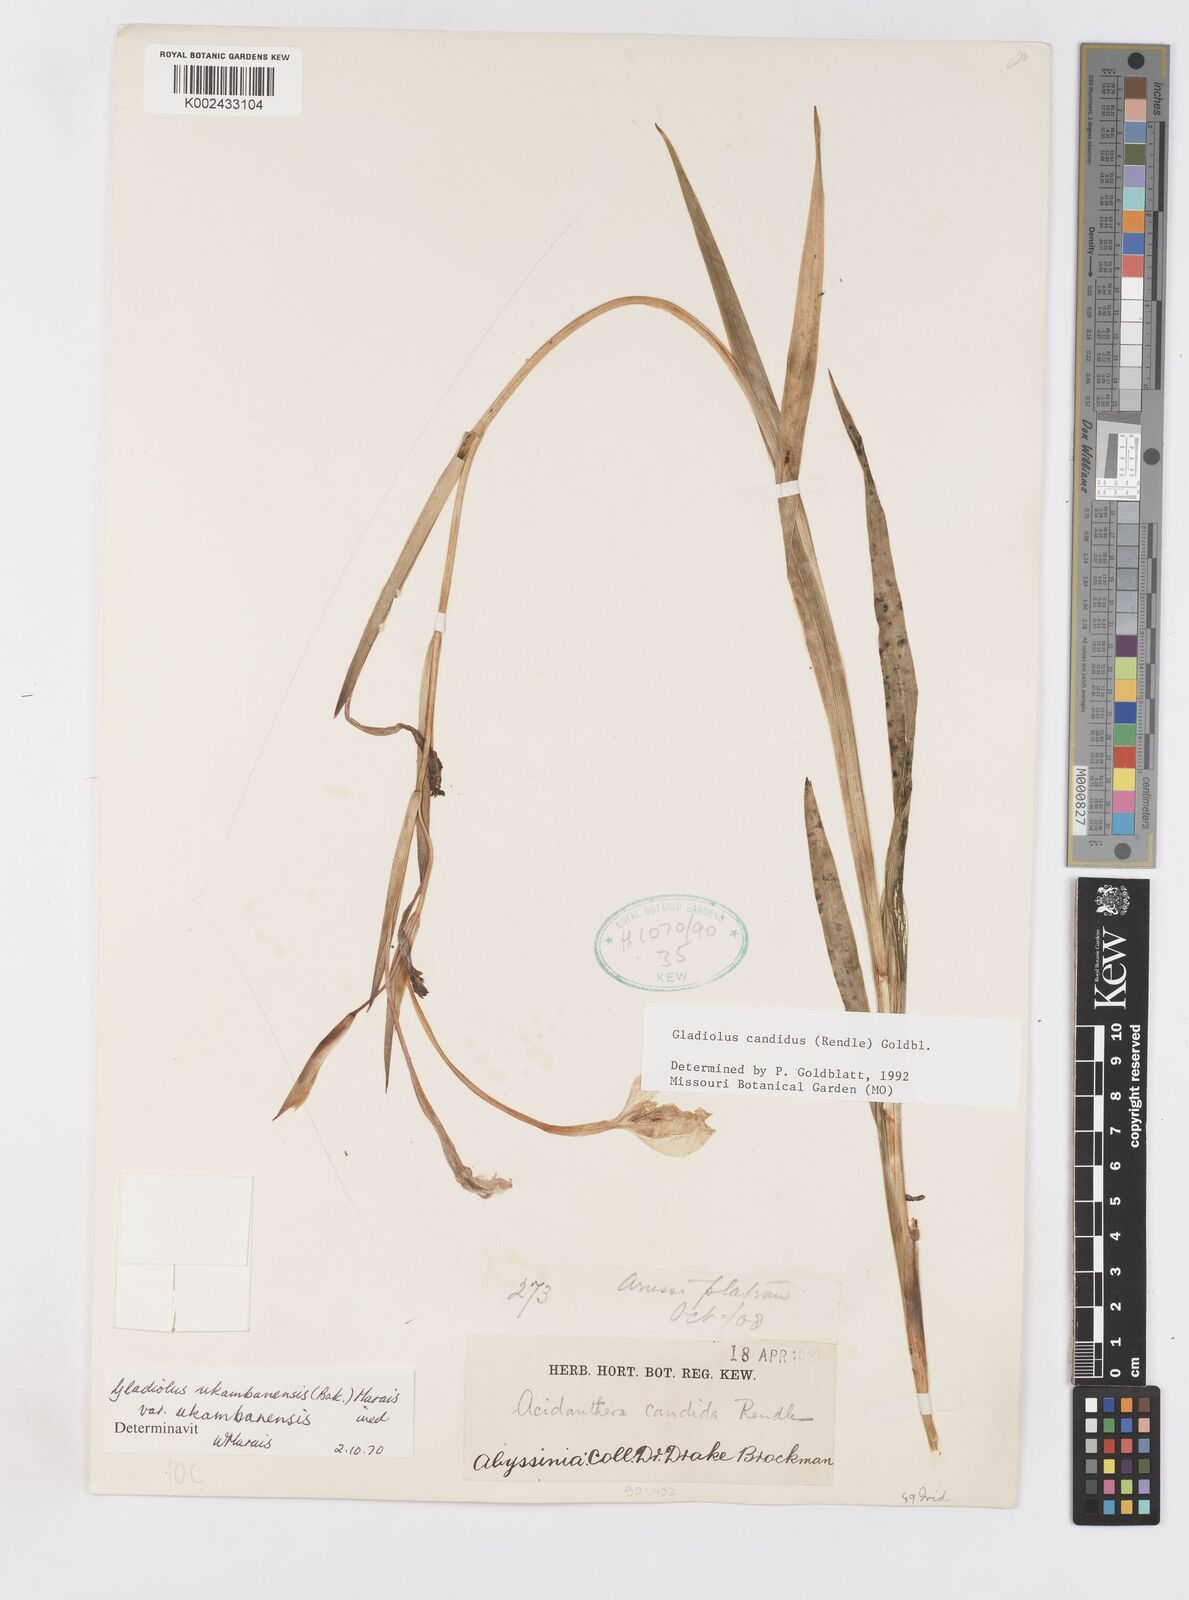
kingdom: Plantae
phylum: Tracheophyta
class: Liliopsida
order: Asparagales
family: Iridaceae
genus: Gladiolus
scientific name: Gladiolus candidus
